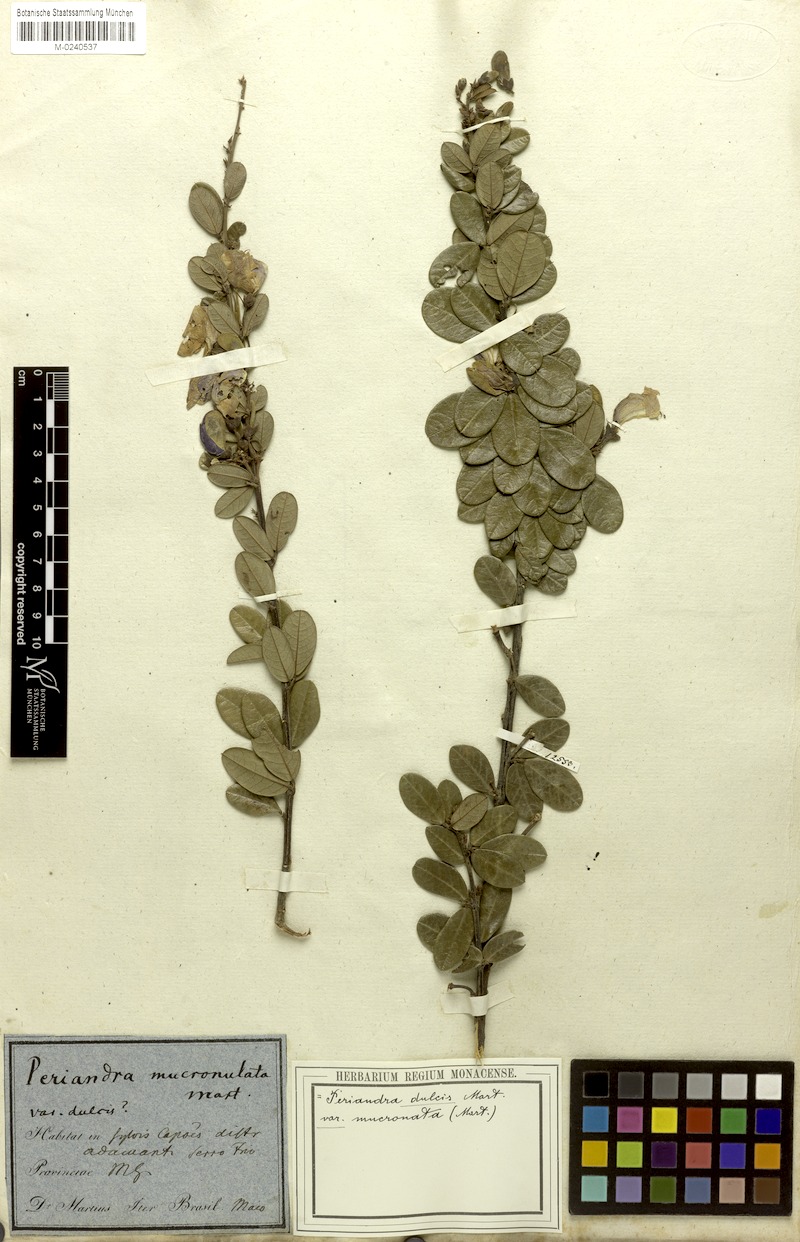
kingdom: Plantae
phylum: Tracheophyta
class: Magnoliopsida
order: Fabales
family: Fabaceae
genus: Periandra
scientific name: Periandra mediterranea
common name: Brazilian licorice
